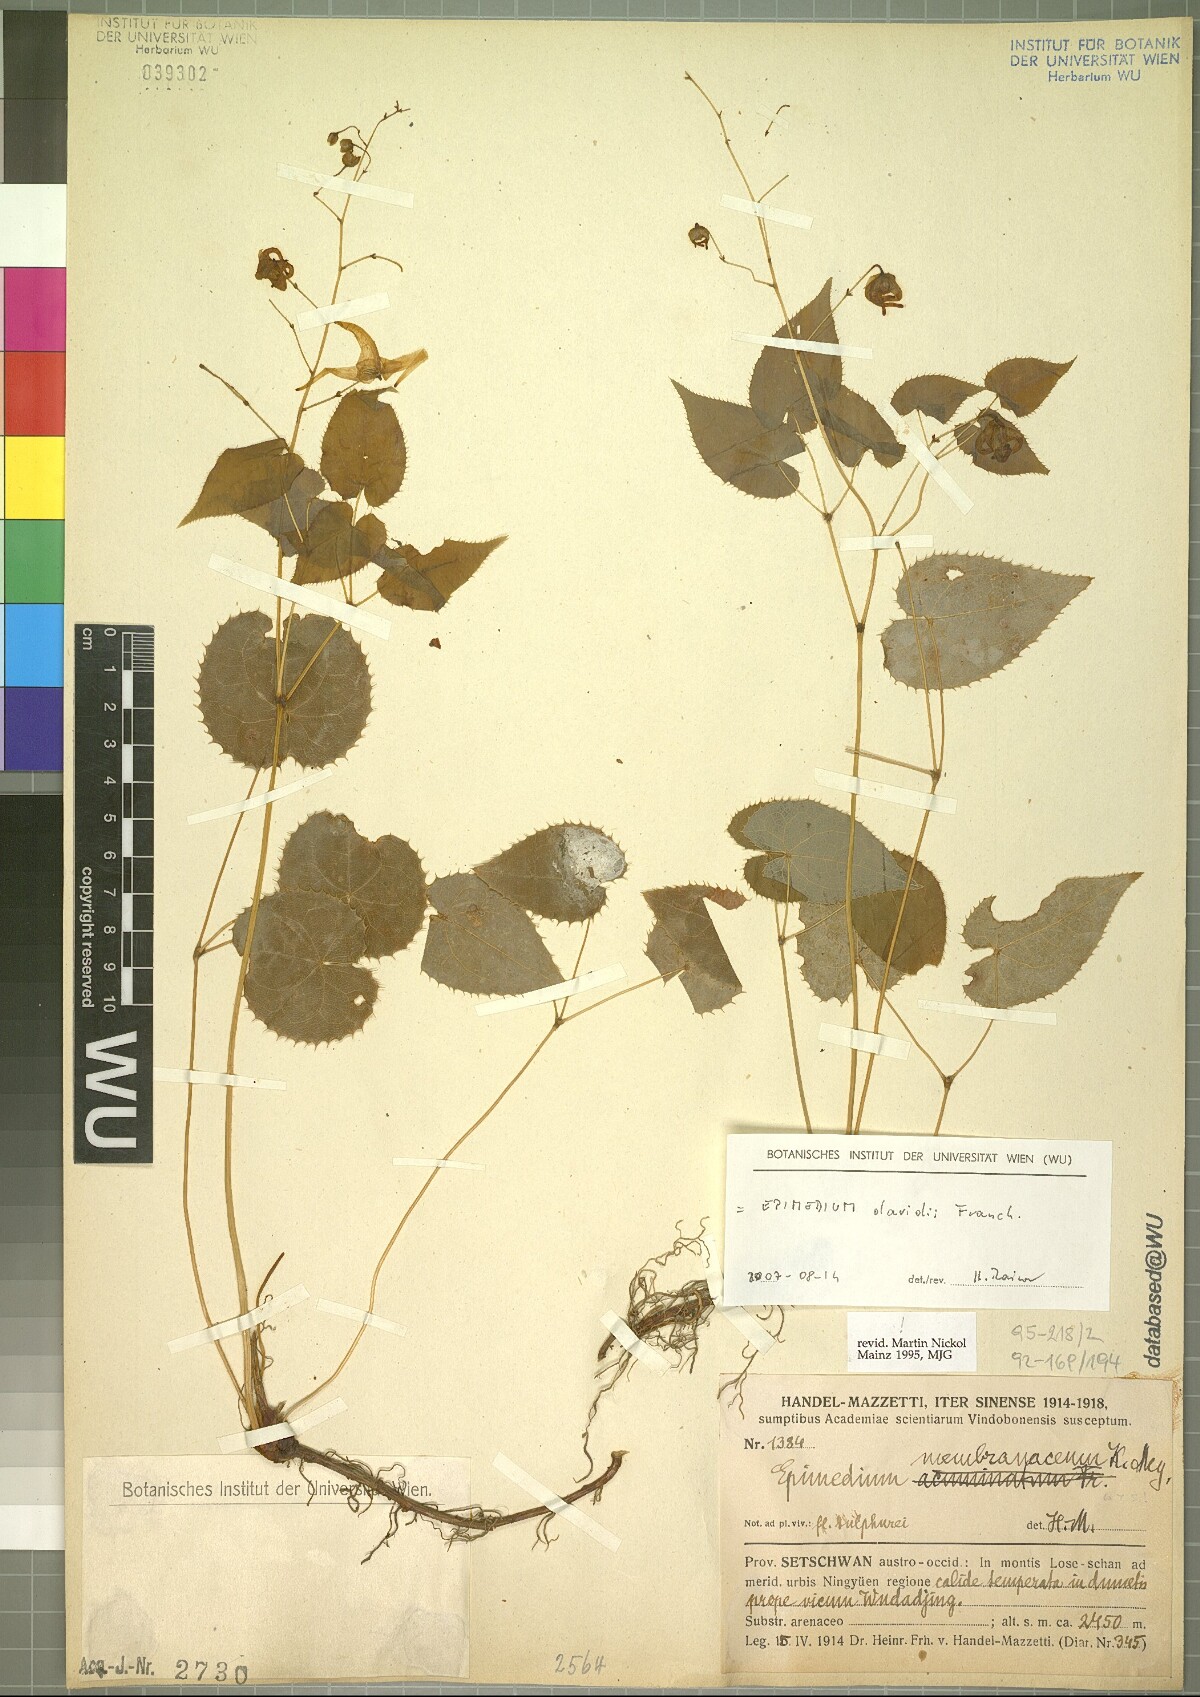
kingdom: Plantae
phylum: Tracheophyta
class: Magnoliopsida
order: Ranunculales
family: Berberidaceae
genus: Epimedium
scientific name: Epimedium davidii
